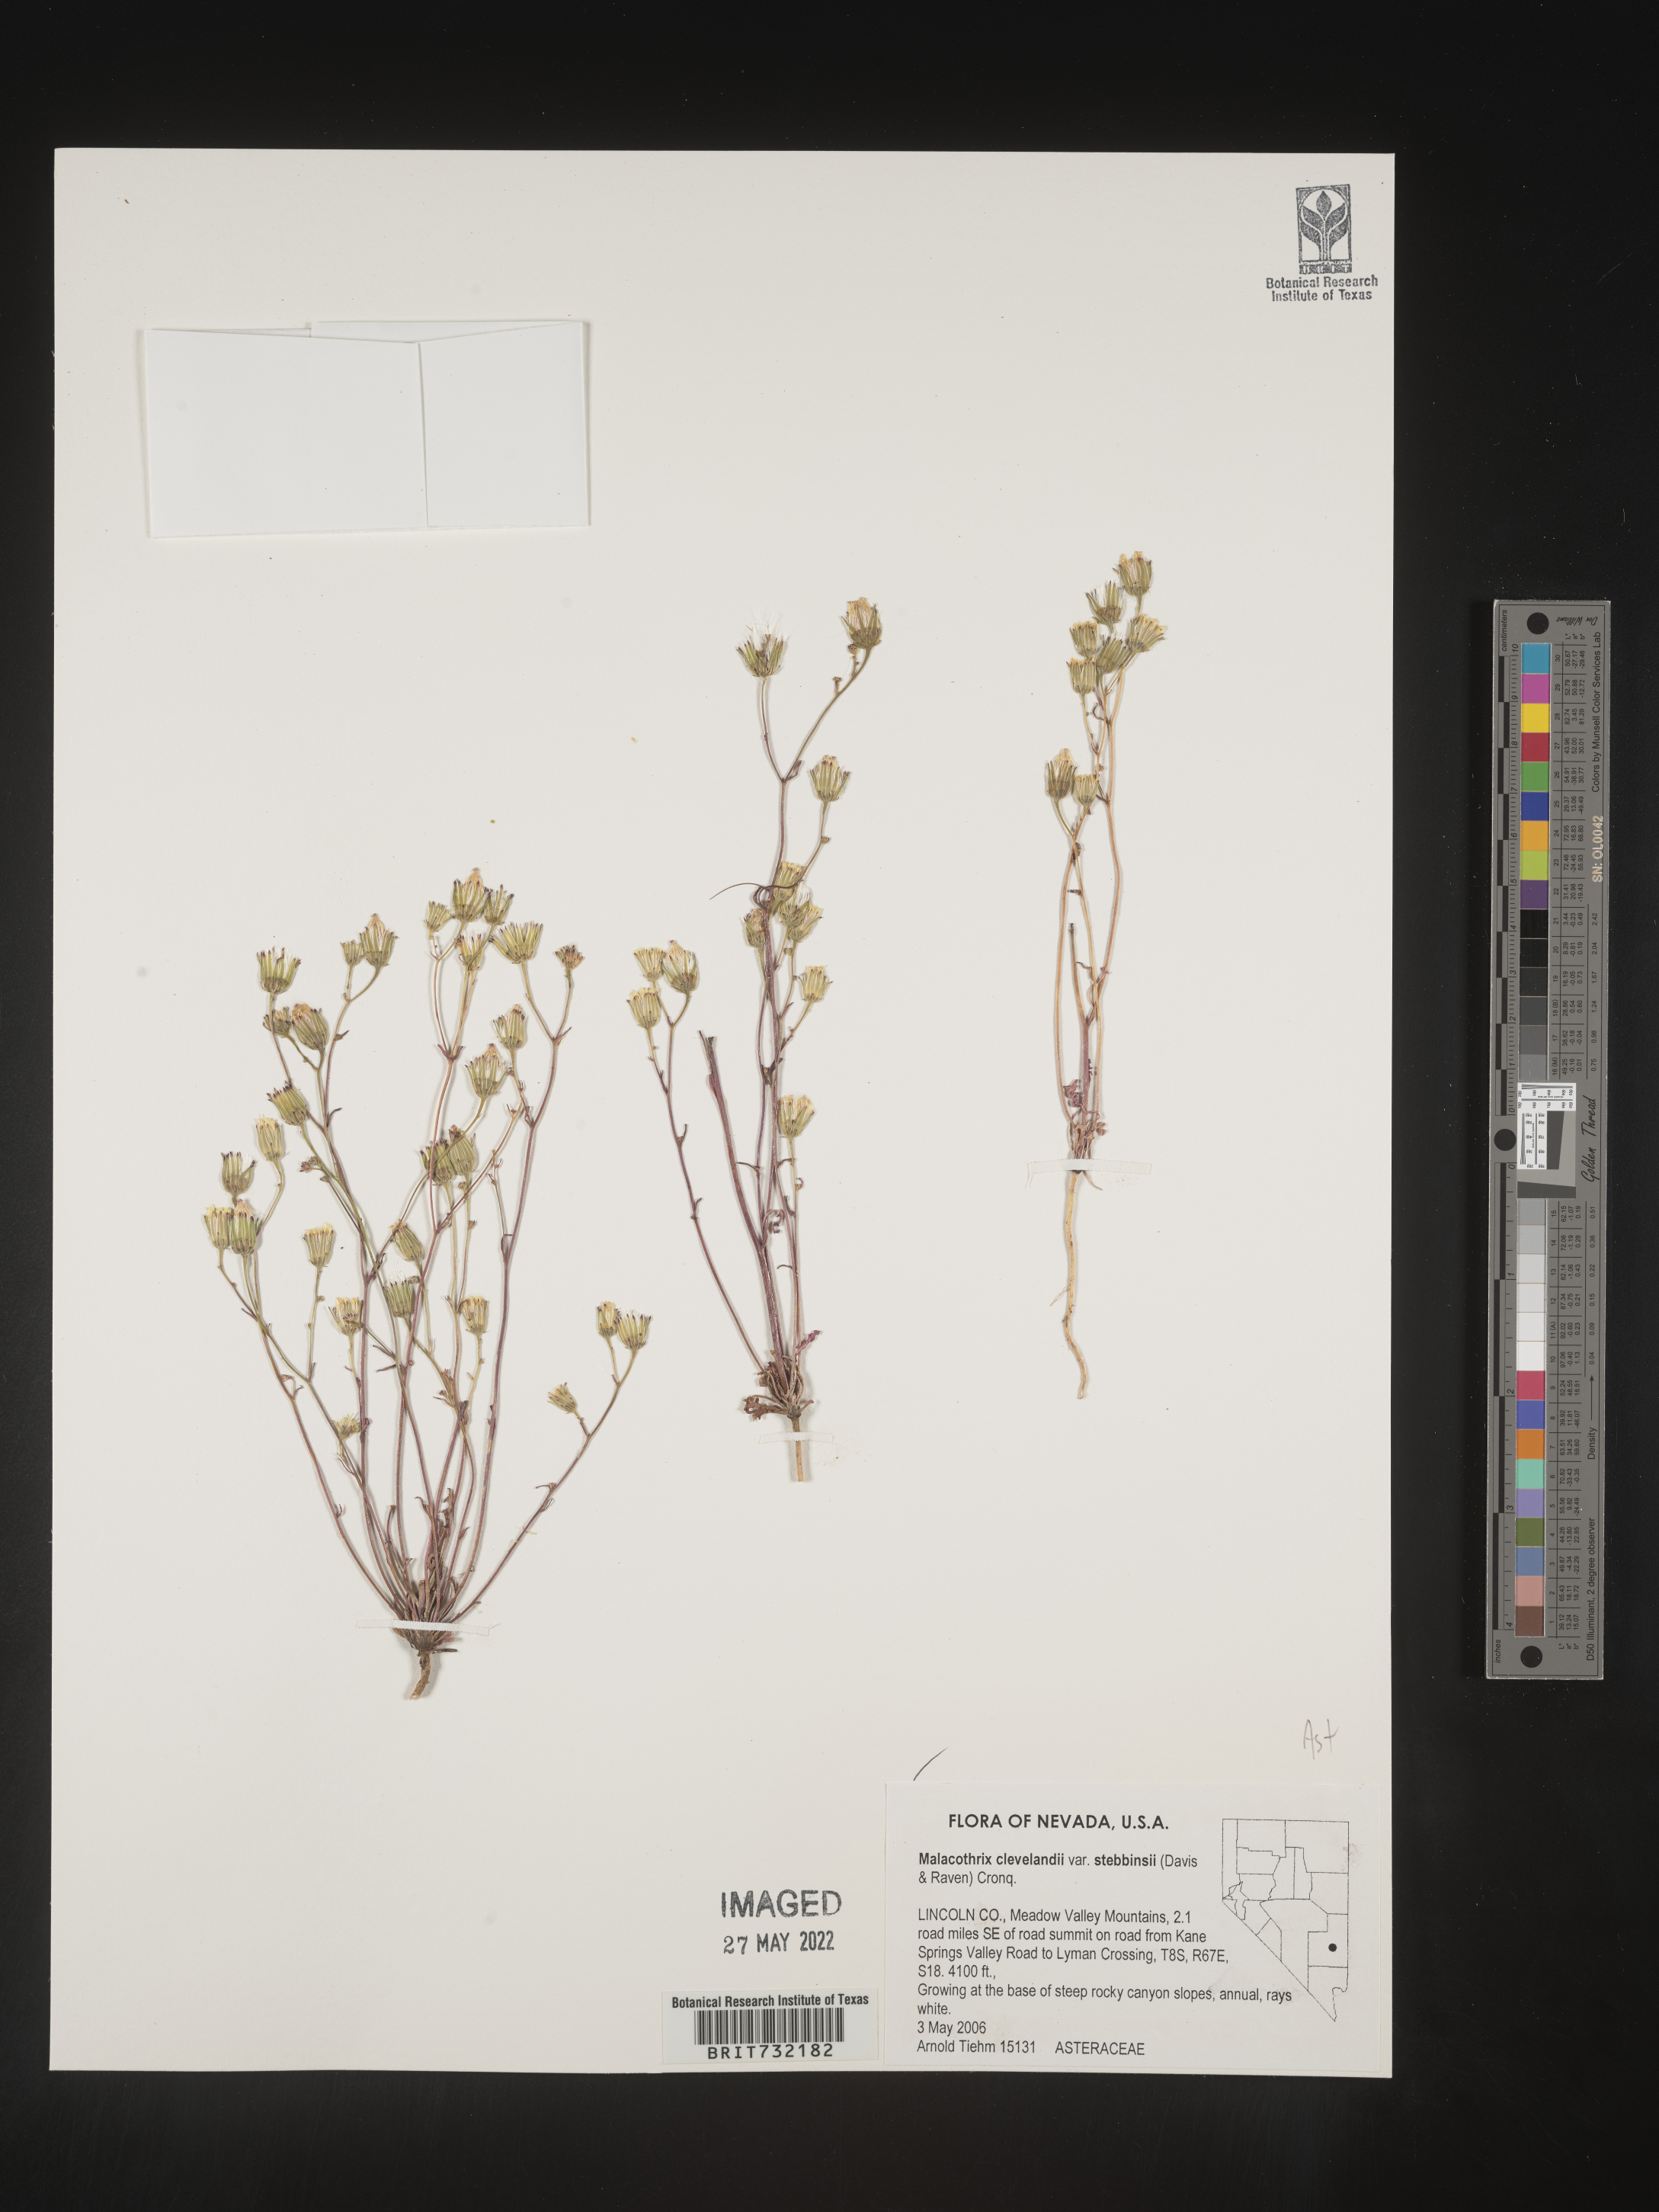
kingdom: Plantae
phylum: Tracheophyta
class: Magnoliopsida
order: Asterales
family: Asteraceae
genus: Malacothrix
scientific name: Malacothrix
